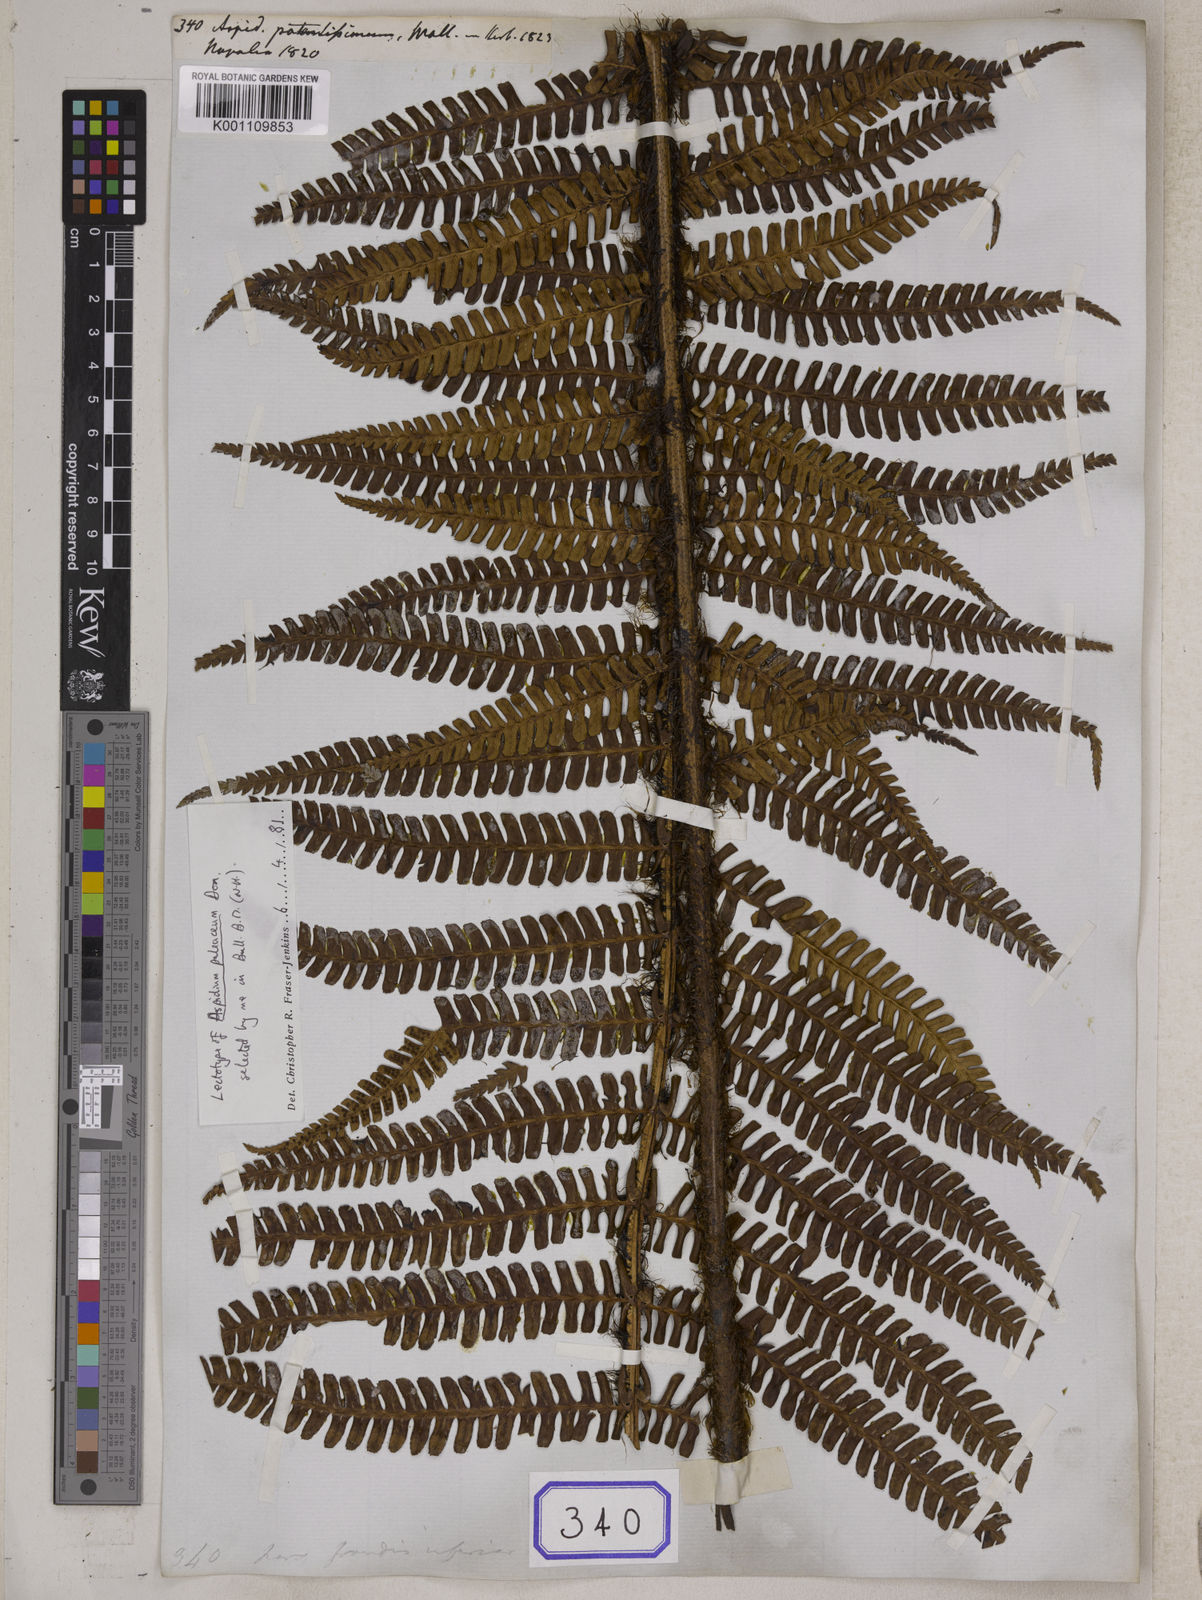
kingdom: Plantae
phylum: Tracheophyta
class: Polypodiopsida
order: Polypodiales
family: Dryopteridaceae
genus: Dryopteris
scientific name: Dryopteris wallichiana
